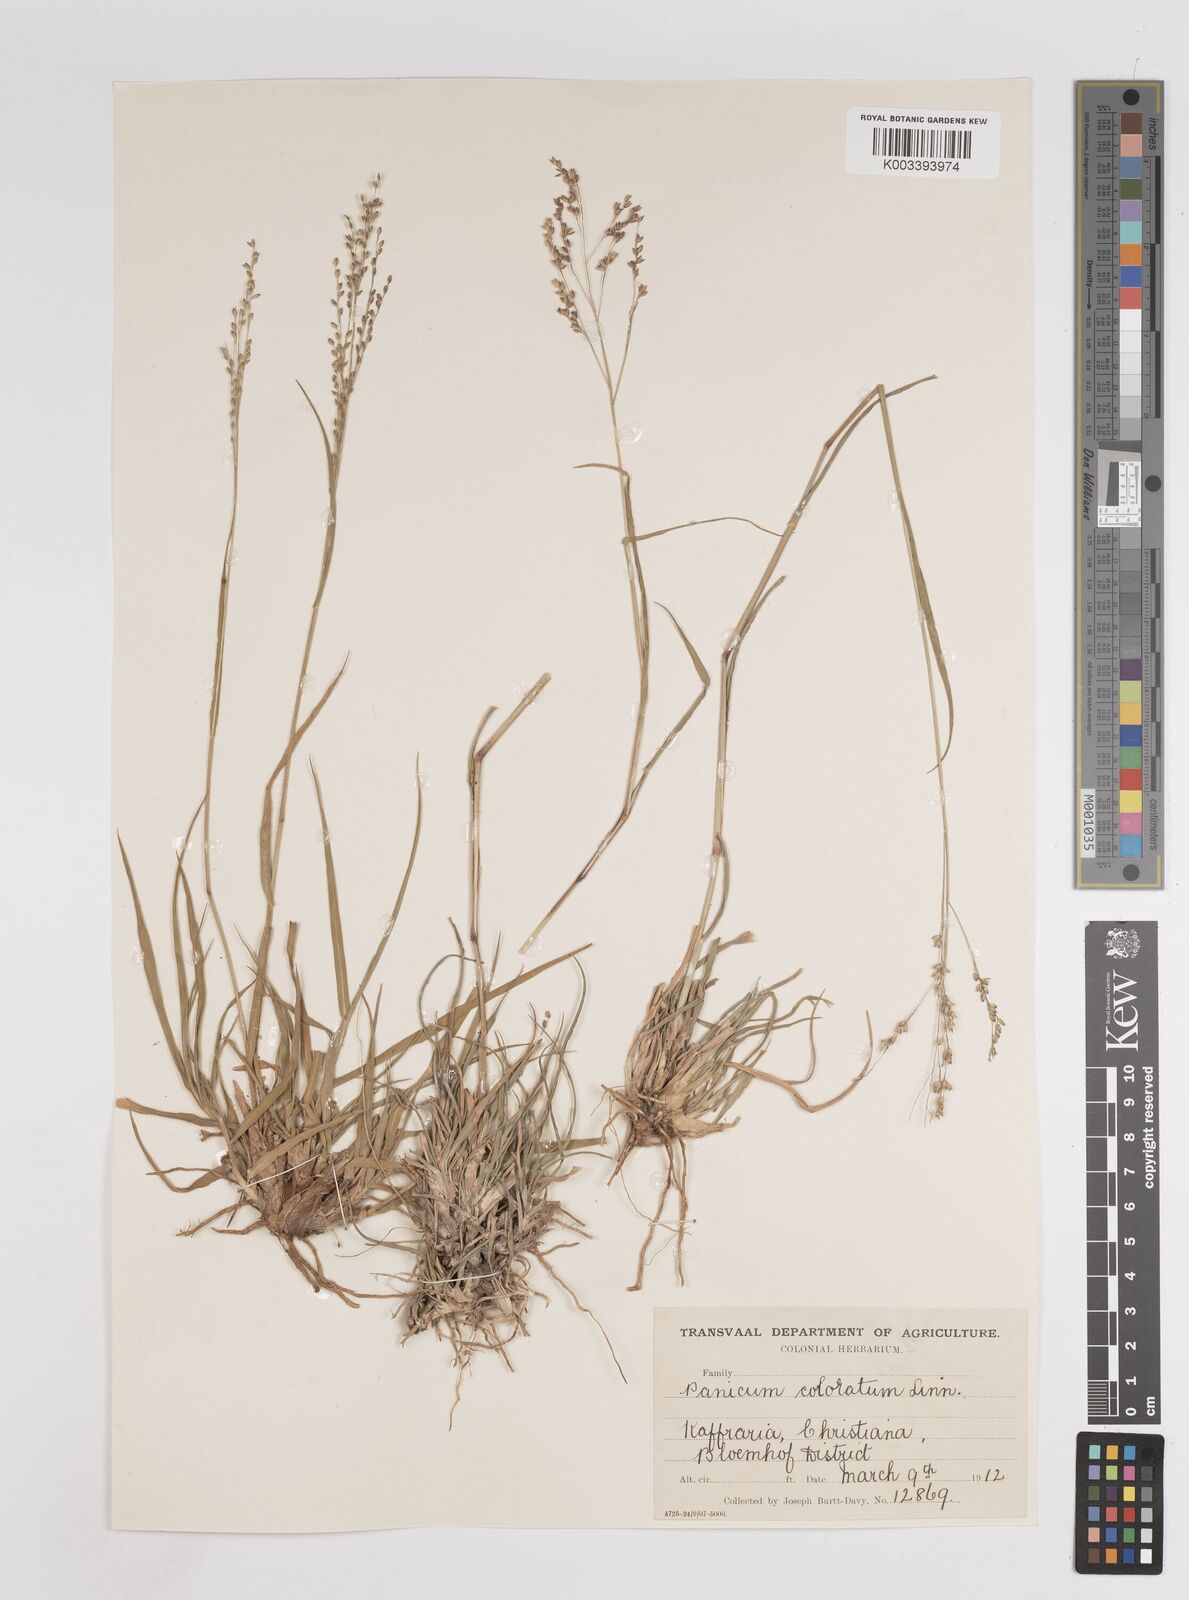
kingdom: Plantae
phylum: Tracheophyta
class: Liliopsida
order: Poales
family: Poaceae
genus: Panicum
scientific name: Panicum coloratum
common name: Kleingrass
